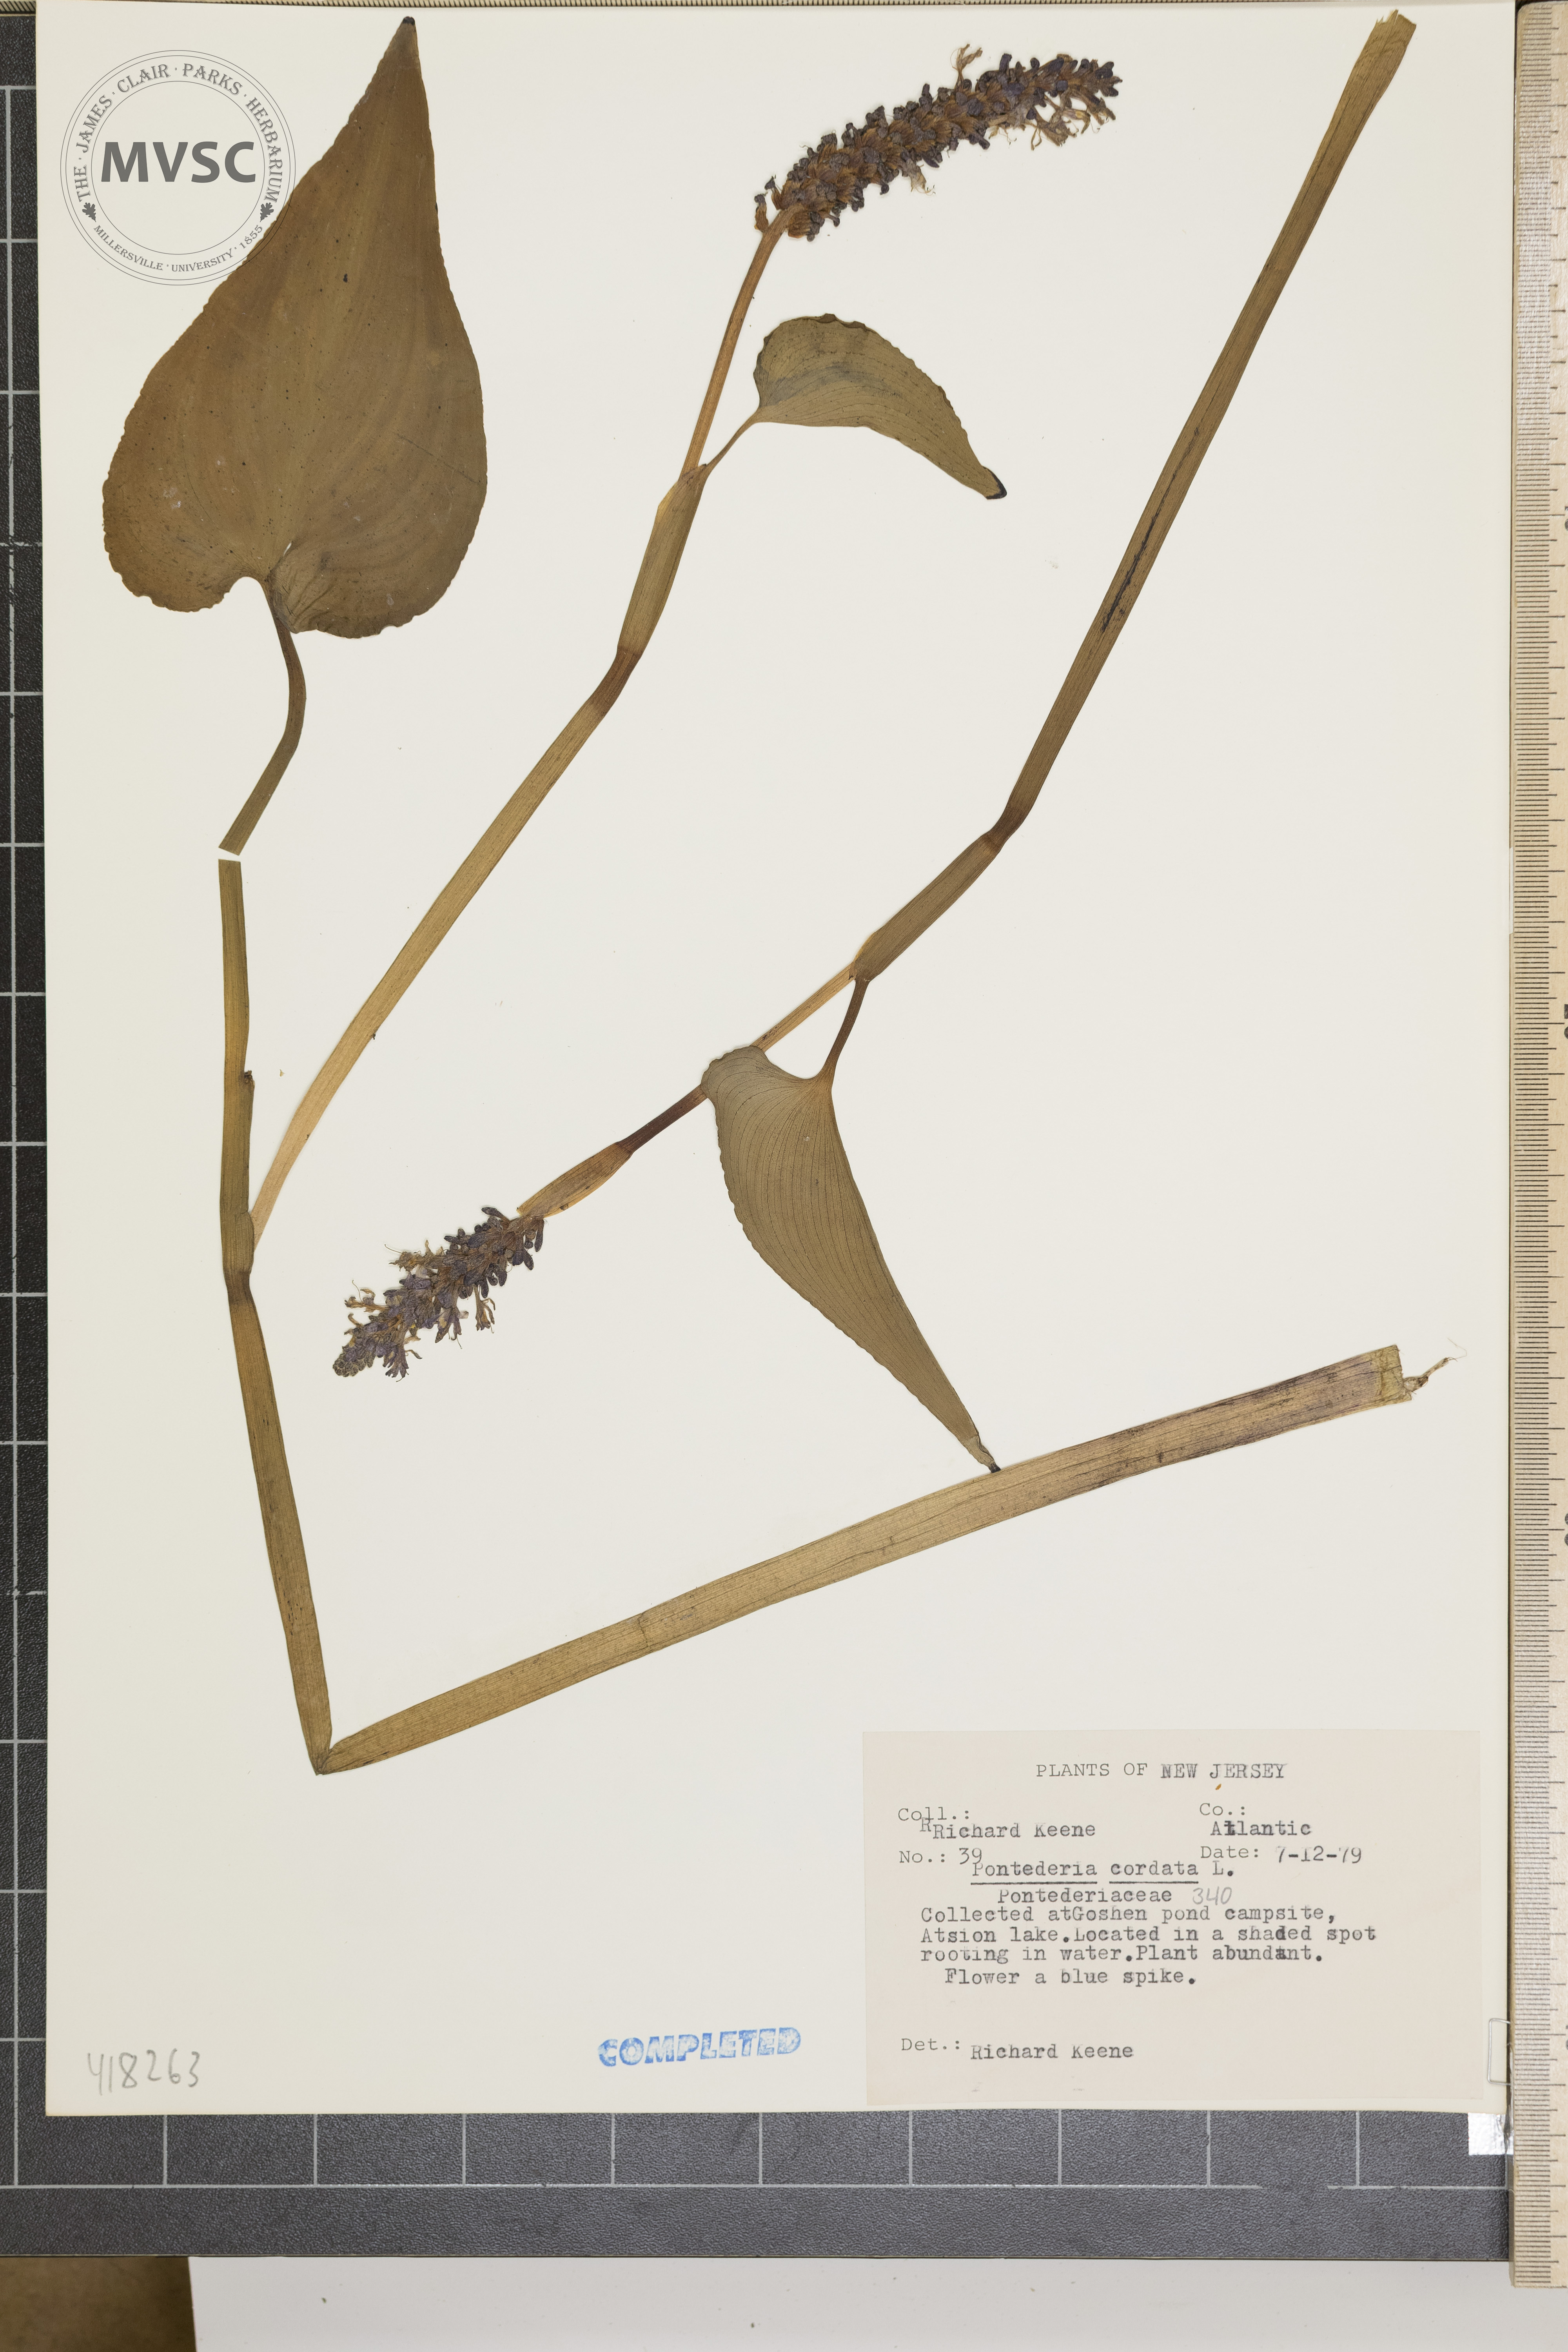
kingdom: Plantae
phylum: Tracheophyta
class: Liliopsida
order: Commelinales
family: Pontederiaceae
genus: Pontederia
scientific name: Pontederia cordata
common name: Pickerelweed
